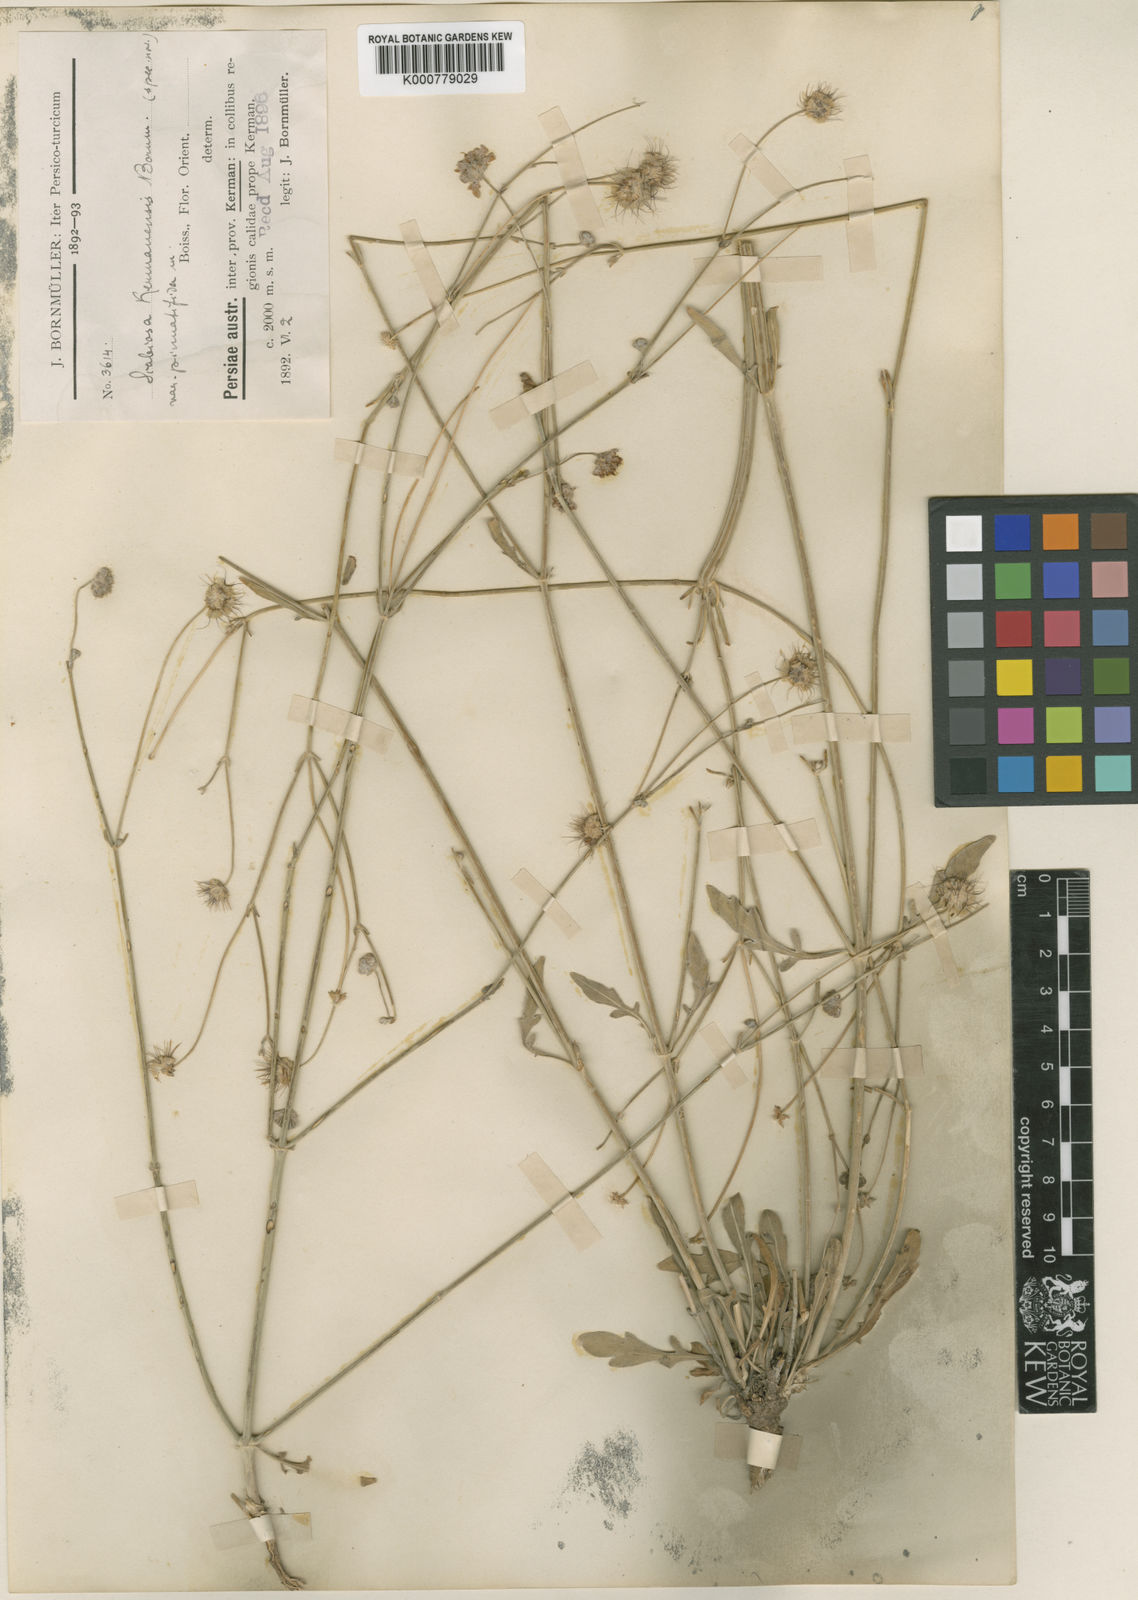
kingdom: Plantae
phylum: Tracheophyta
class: Magnoliopsida
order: Dipsacales
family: Caprifoliaceae
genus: Lomelosia
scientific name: Lomelosia candollei
